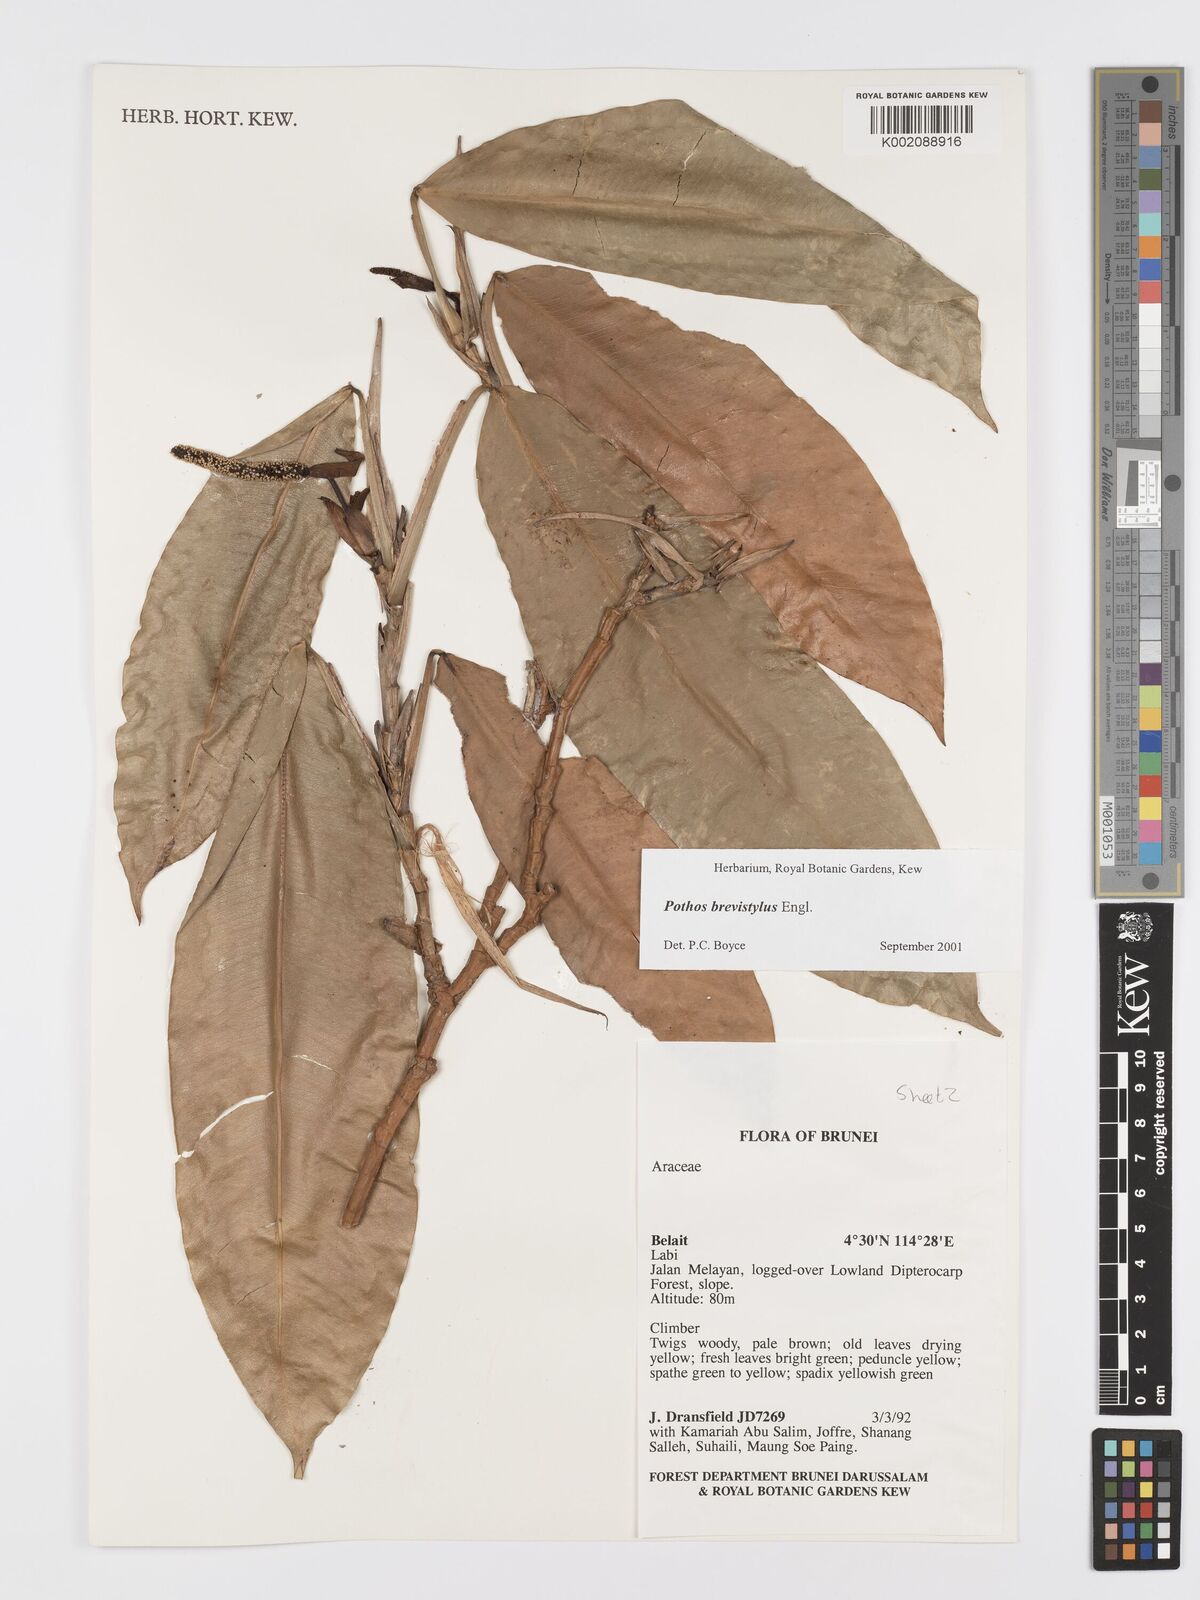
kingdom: Plantae
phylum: Tracheophyta
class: Liliopsida
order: Alismatales
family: Araceae
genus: Pothos
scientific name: Pothos brevistylus
